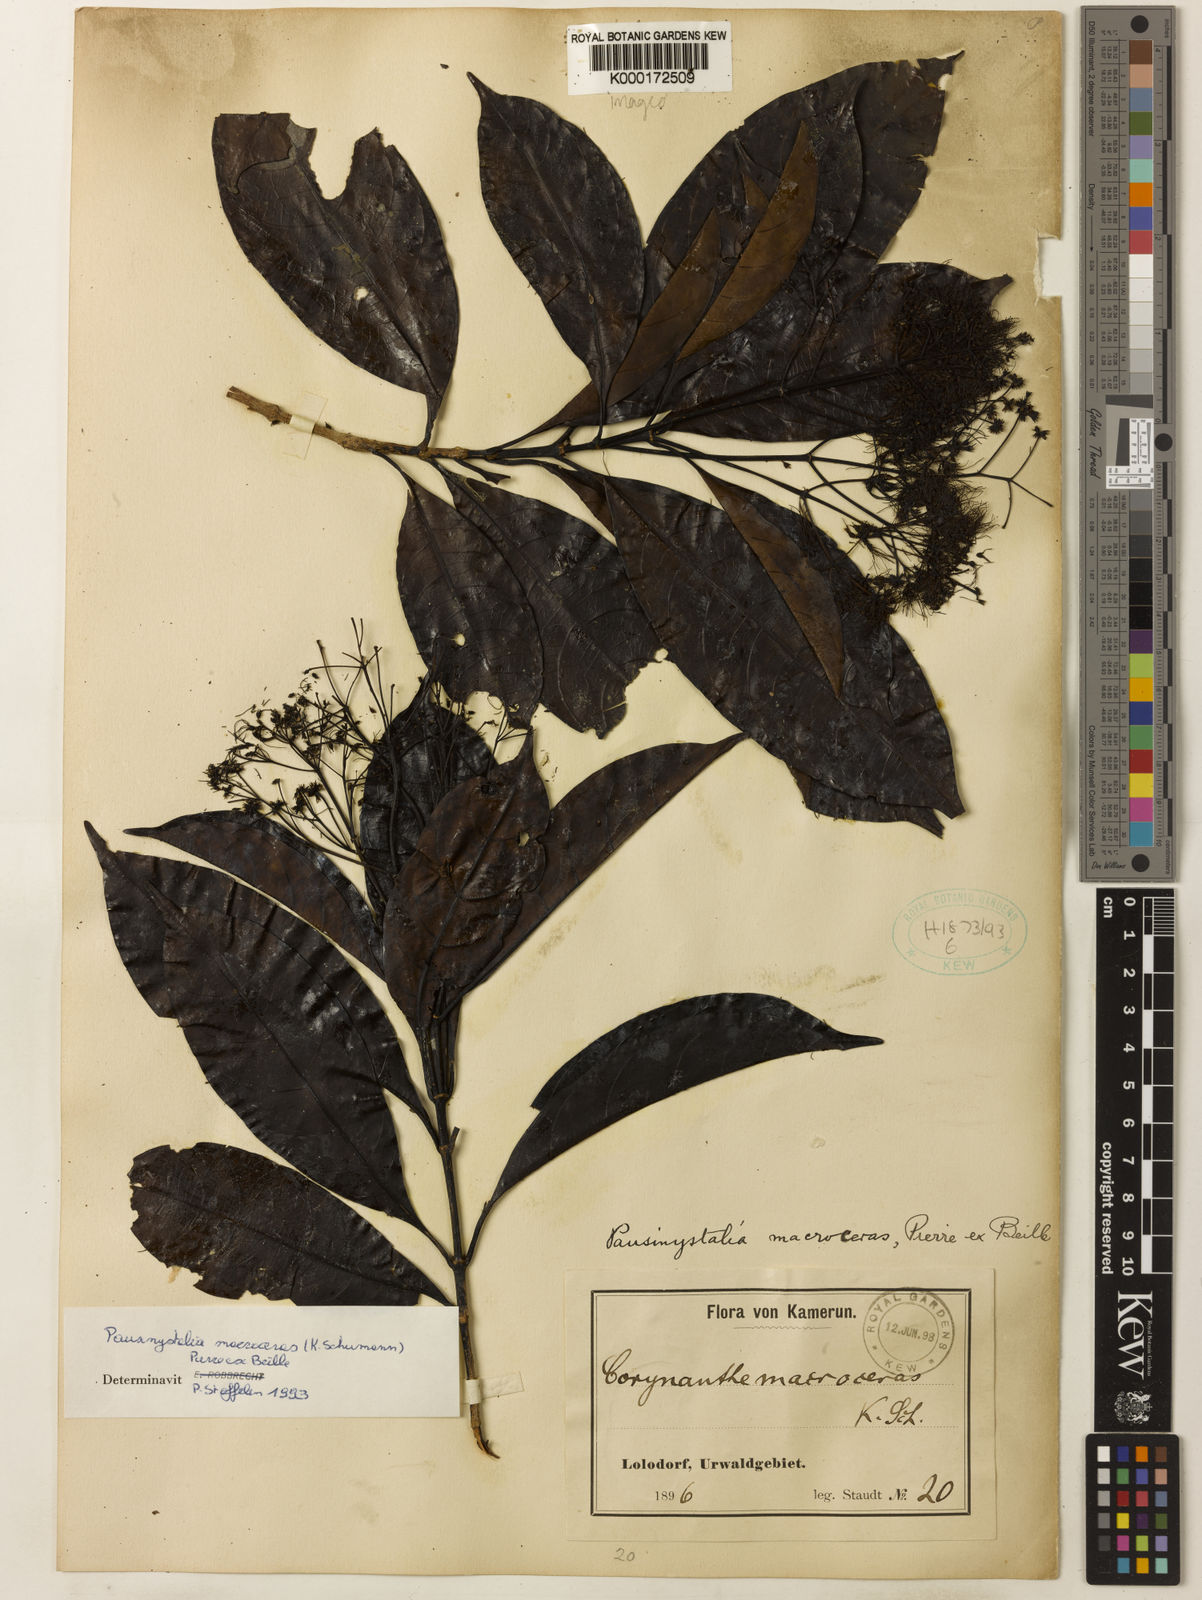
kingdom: Plantae
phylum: Tracheophyta
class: Magnoliopsida
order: Gentianales
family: Rubiaceae
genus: Pausinystalia
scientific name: Pausinystalia
